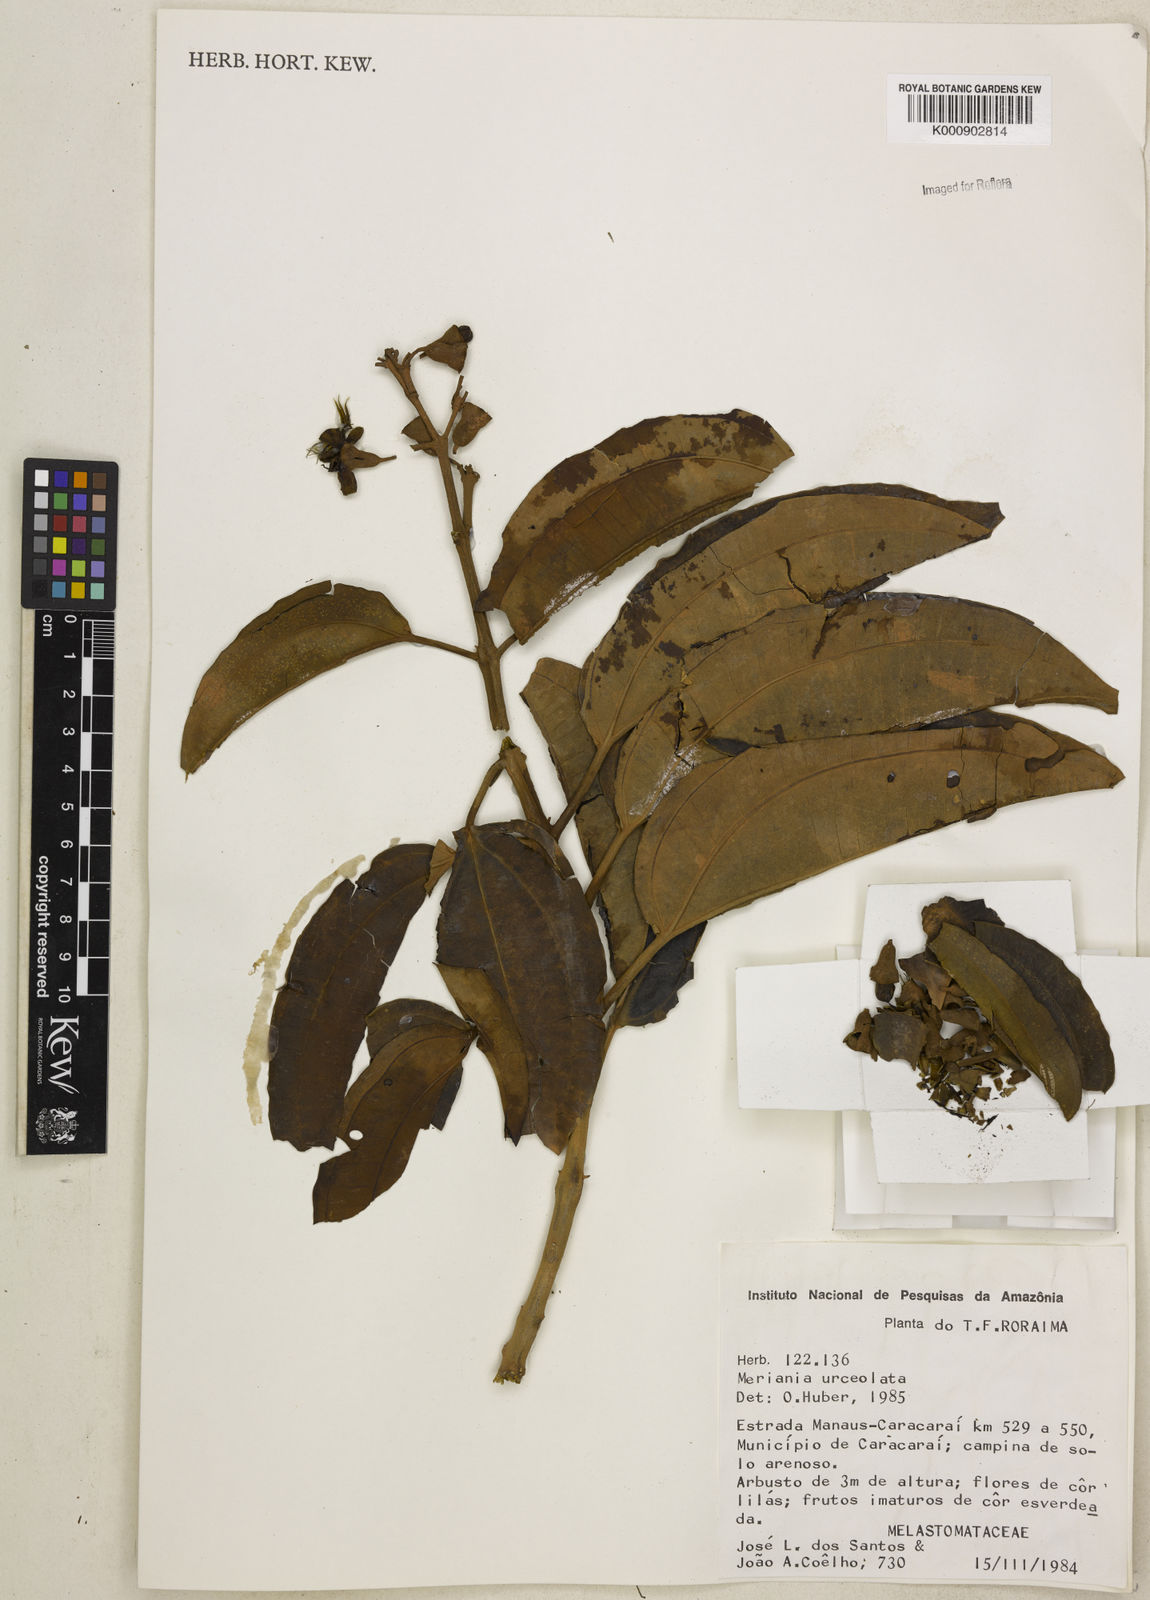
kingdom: Plantae
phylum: Tracheophyta
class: Magnoliopsida
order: Myrtales
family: Melastomataceae
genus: Meriania
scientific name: Meriania urceolata
